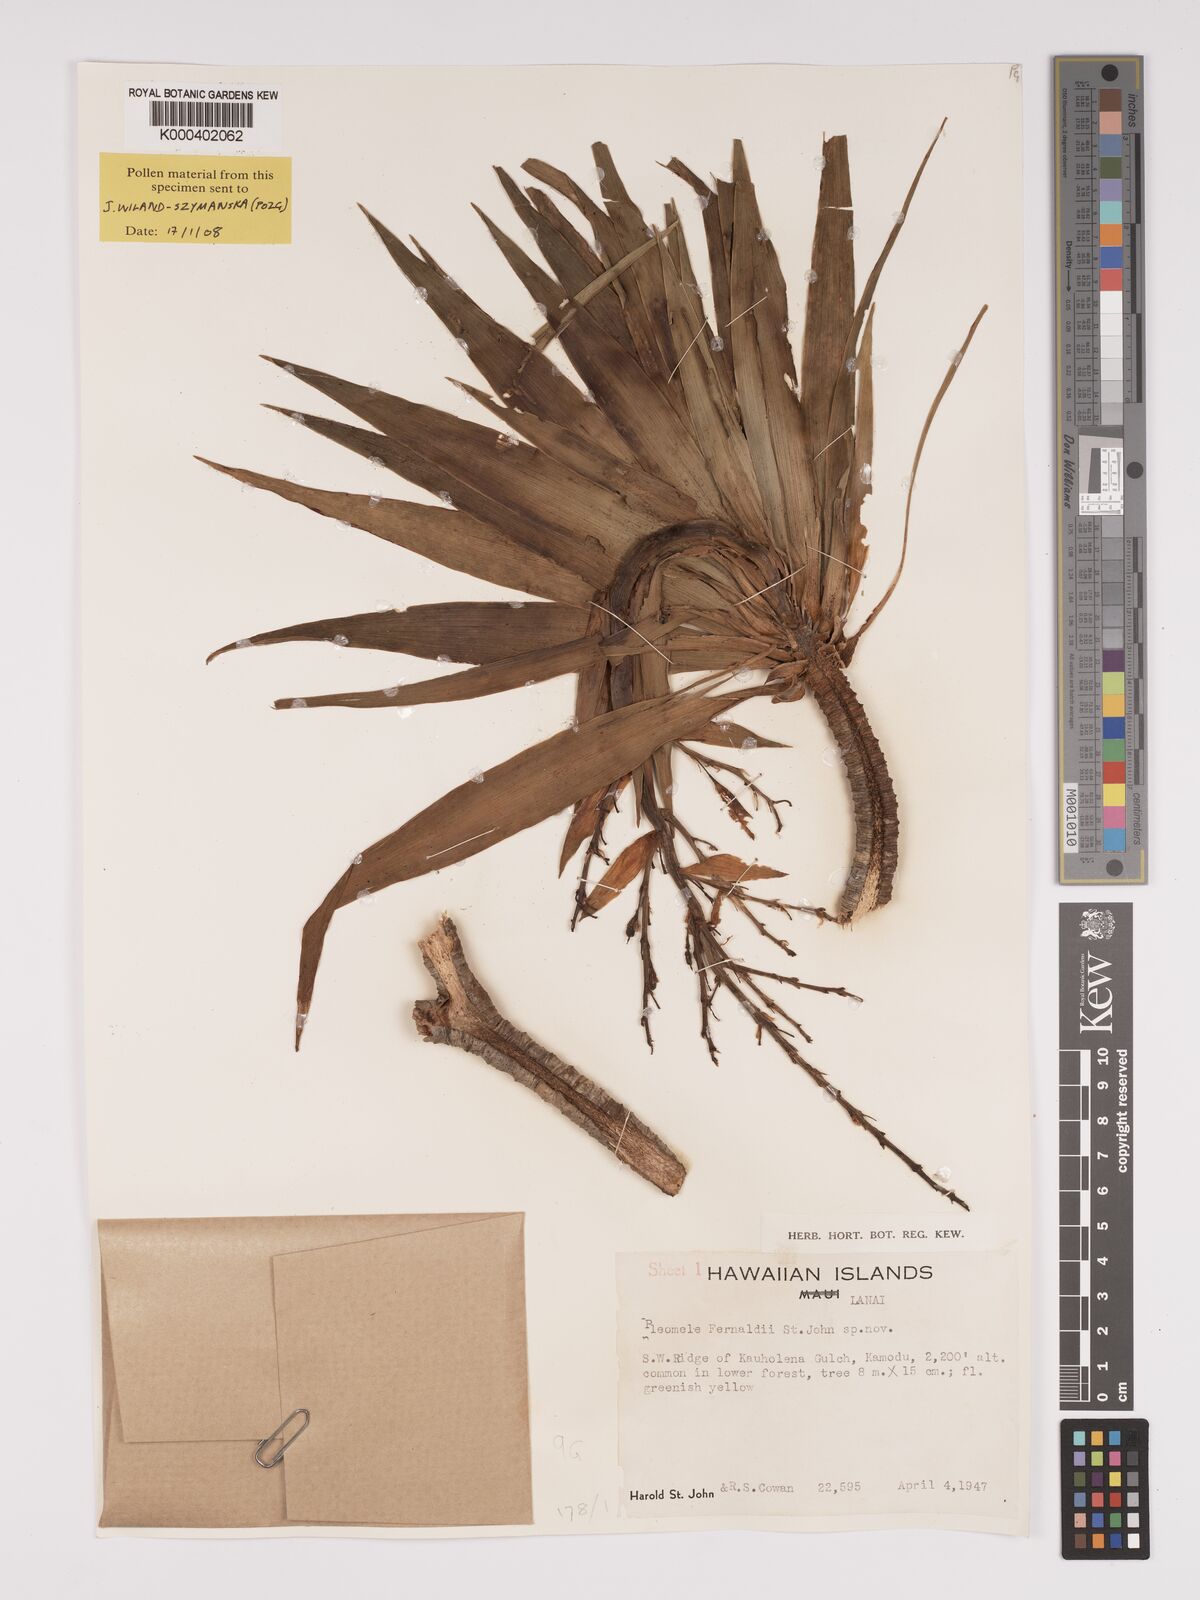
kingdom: Plantae
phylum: Tracheophyta
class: Liliopsida
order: Asparagales
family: Asparagaceae
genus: Dracaena
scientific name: Dracaena fernaldii
